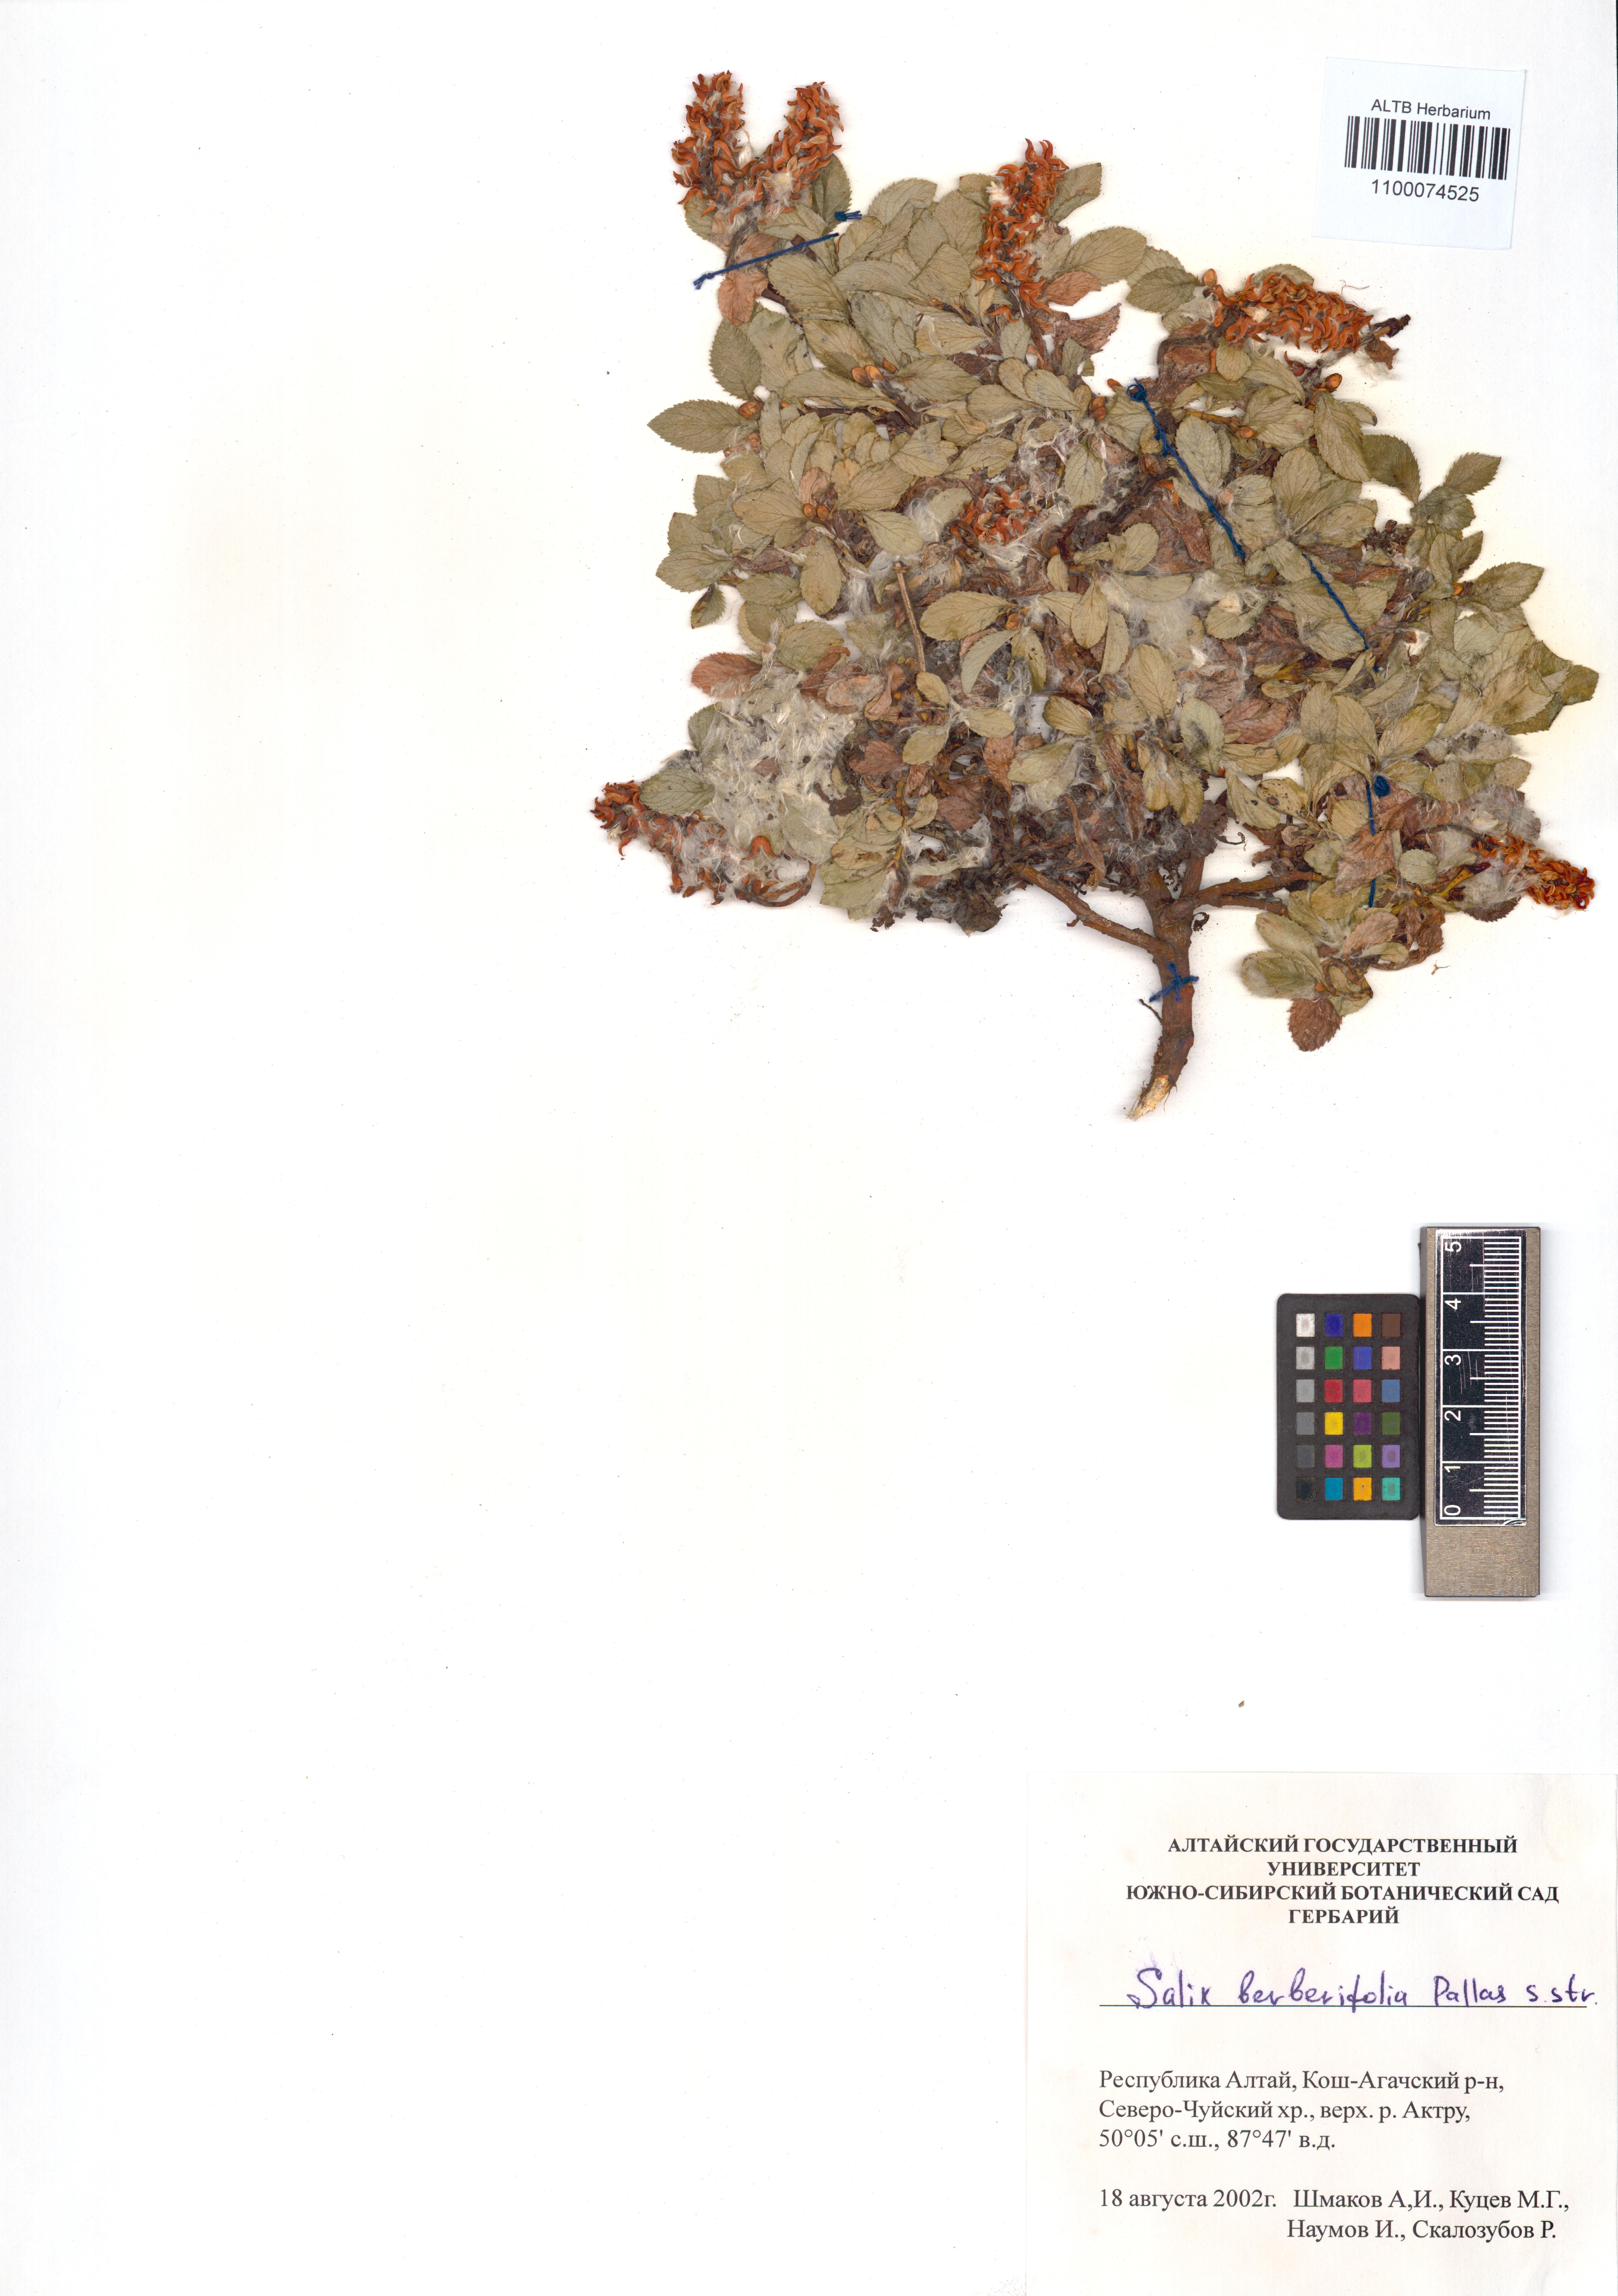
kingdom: Plantae
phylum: Tracheophyta
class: Magnoliopsida
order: Malpighiales
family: Salicaceae
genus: Salix
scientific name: Salix berberifolia
